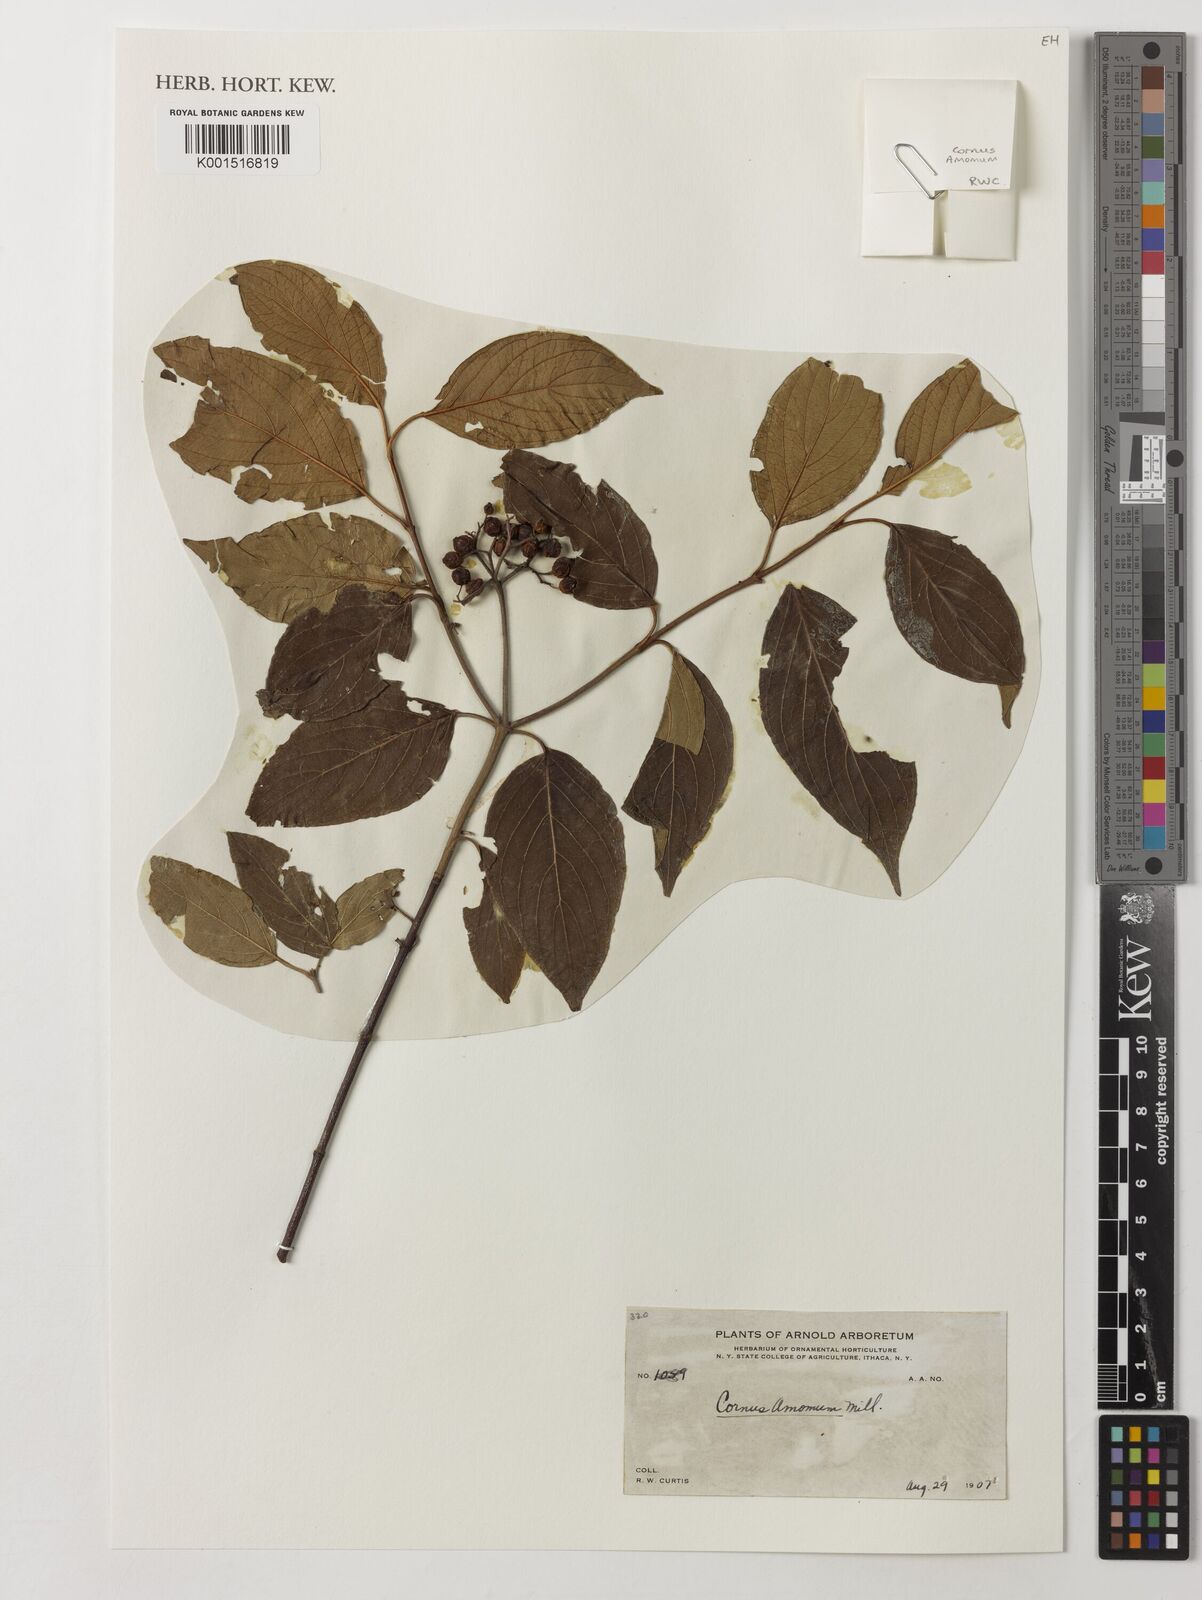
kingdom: Plantae
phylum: Tracheophyta
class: Magnoliopsida
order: Cornales
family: Cornaceae
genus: Cornus
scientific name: Cornus amomum
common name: Silky dogwood
